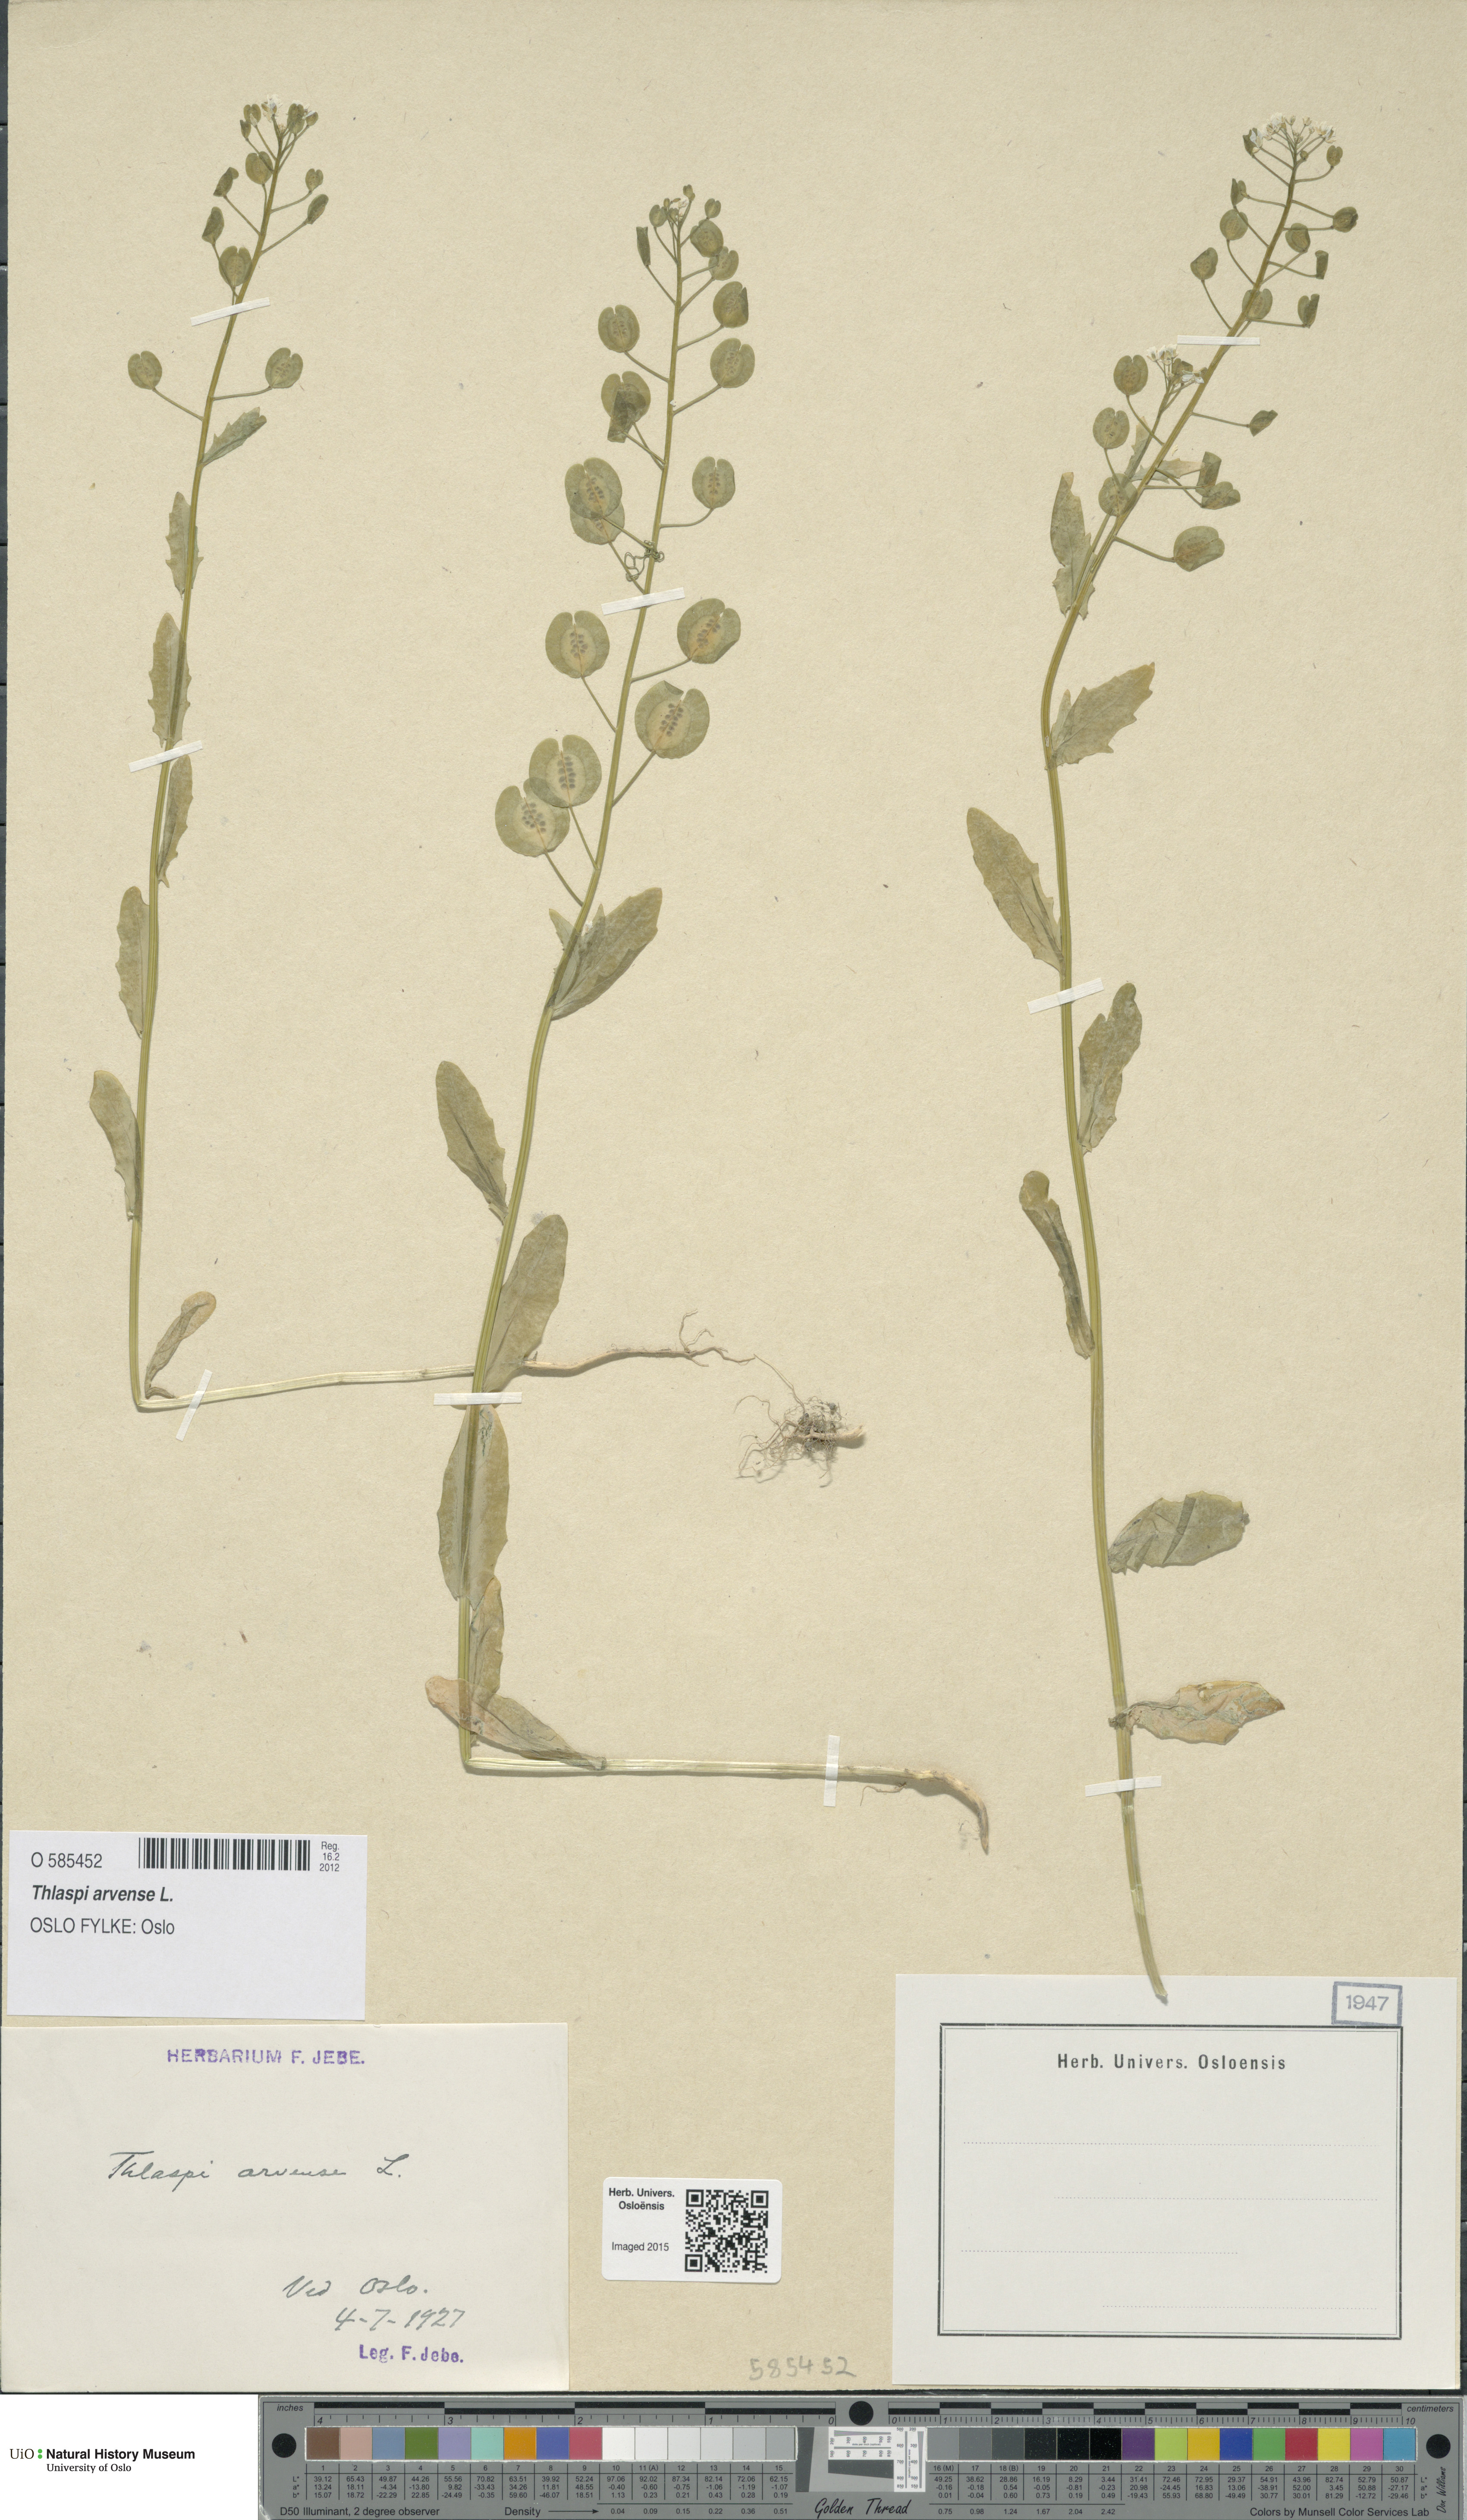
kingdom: Plantae
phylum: Tracheophyta
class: Magnoliopsida
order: Brassicales
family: Brassicaceae
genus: Thlaspi
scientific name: Thlaspi arvense
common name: Field pennycress
